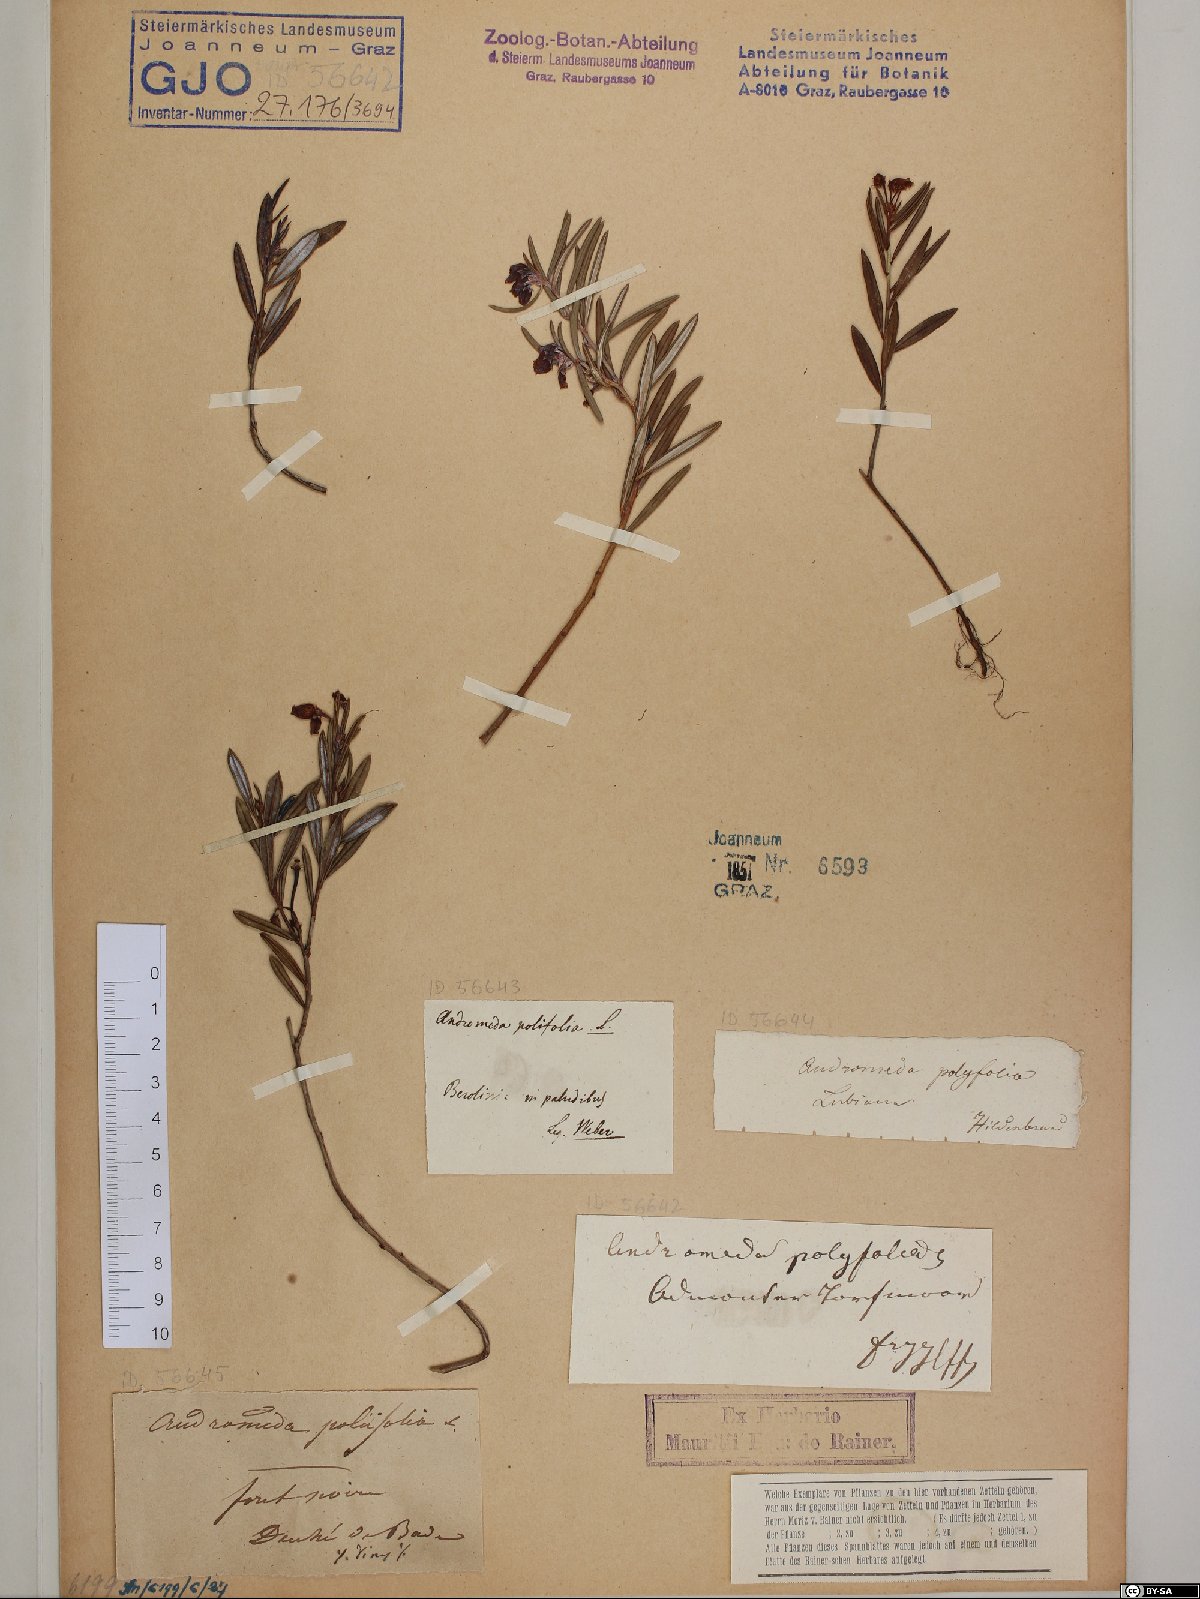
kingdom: Plantae
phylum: Tracheophyta
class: Magnoliopsida
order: Ericales
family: Ericaceae
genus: Andromeda
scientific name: Andromeda polifolia
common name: Bog-rosemary
